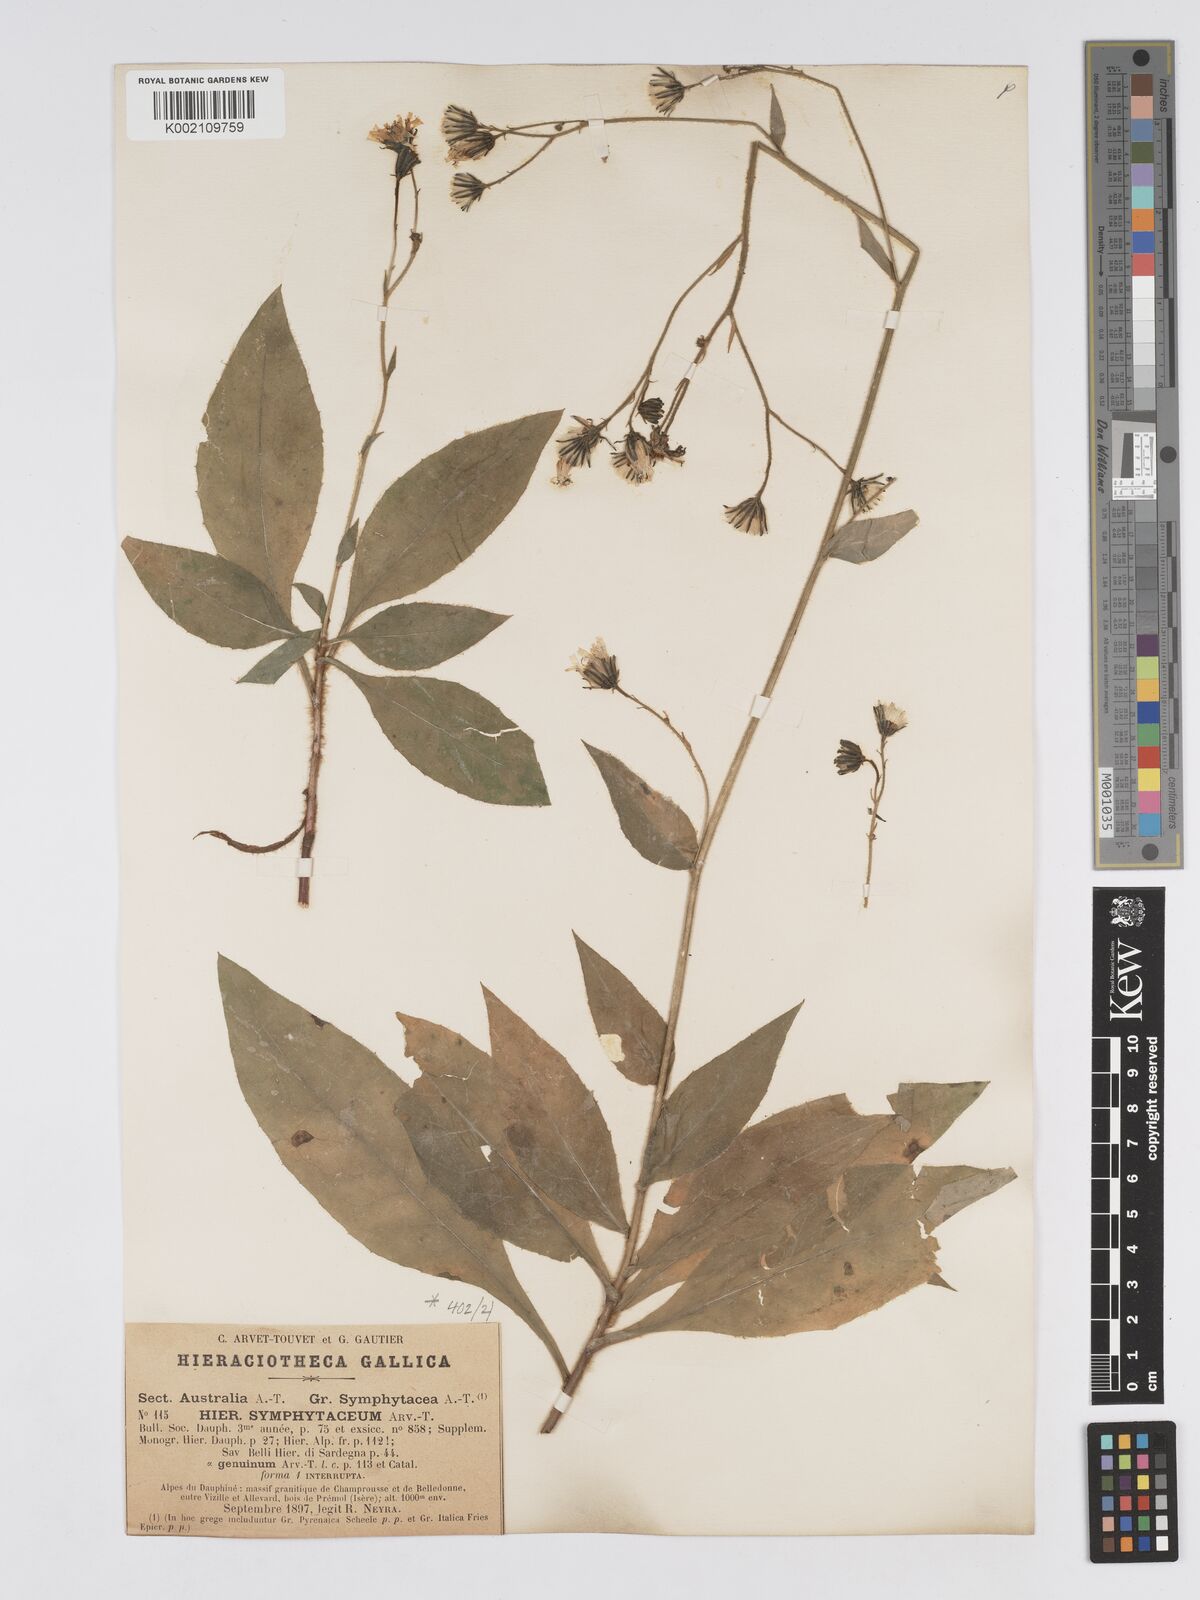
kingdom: Plantae
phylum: Tracheophyta
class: Magnoliopsida
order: Asterales
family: Asteraceae
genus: Hieracium
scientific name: Hieracium symphytaceum
